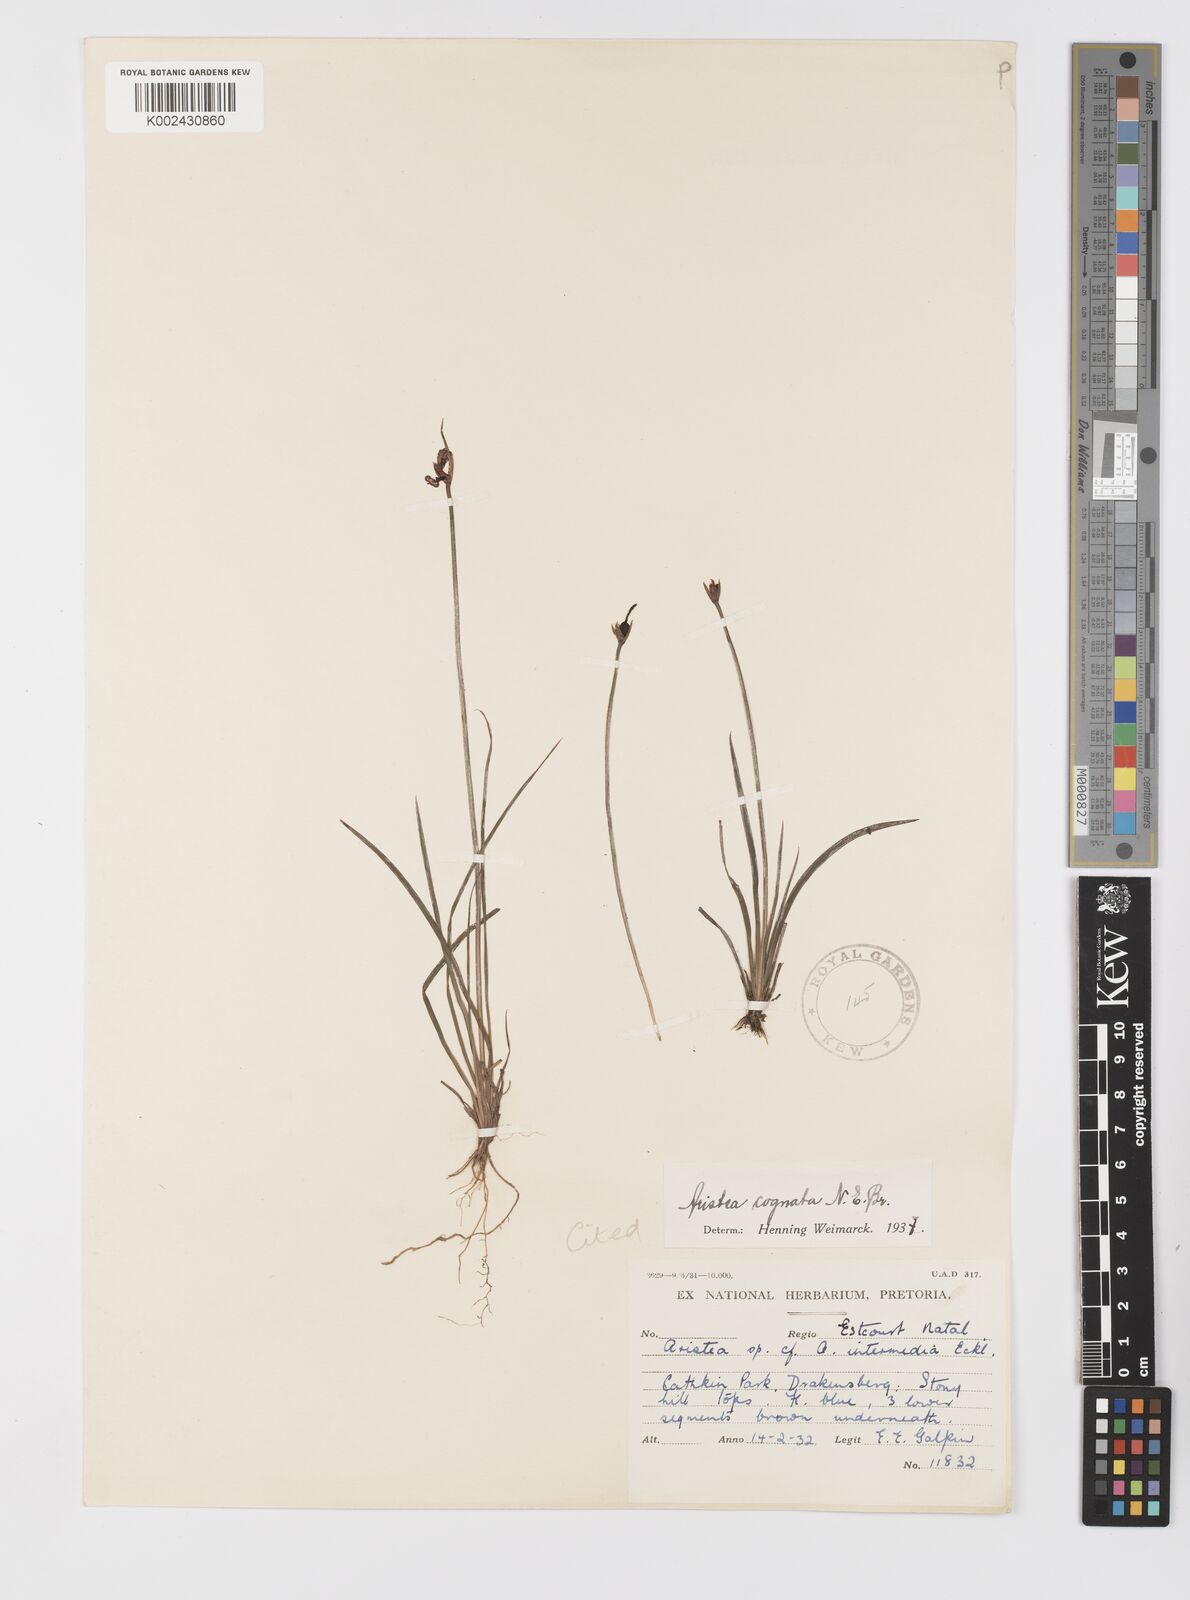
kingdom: Plantae
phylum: Tracheophyta
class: Liliopsida
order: Asparagales
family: Iridaceae
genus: Aristea
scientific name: Aristea abyssinica
